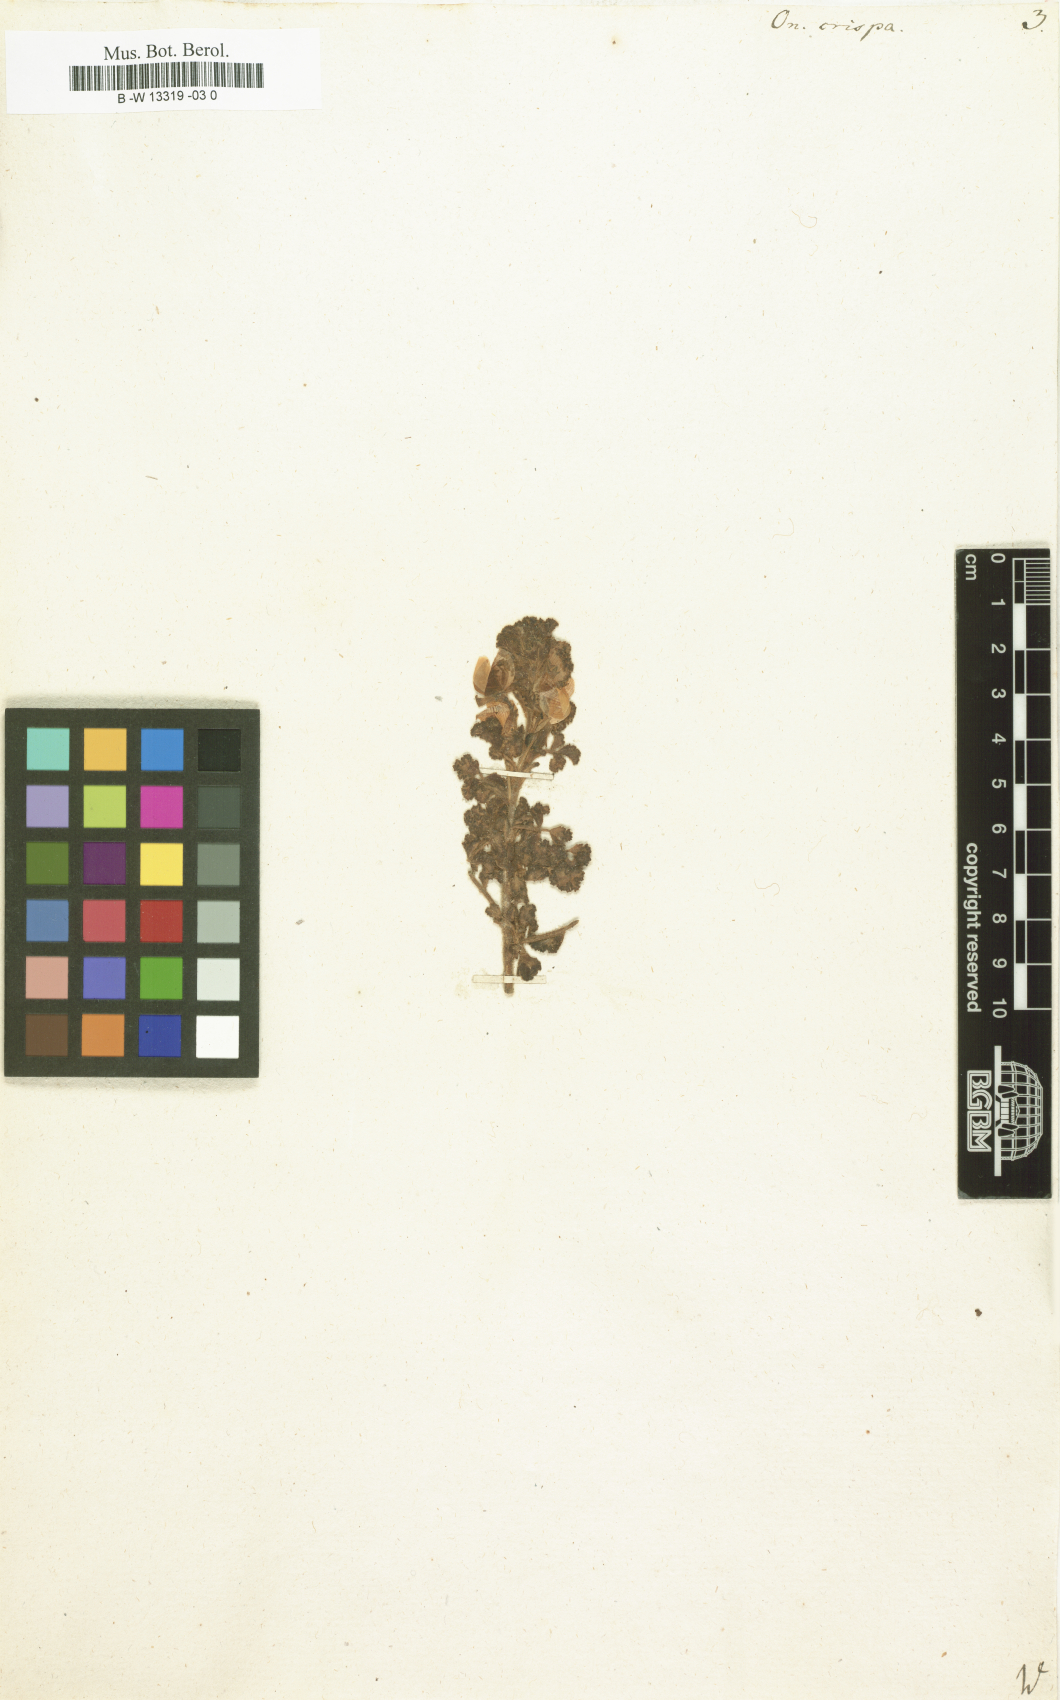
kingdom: Plantae
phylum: Tracheophyta
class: Magnoliopsida
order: Fabales
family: Fabaceae
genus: Ononis
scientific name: Ononis crispa
